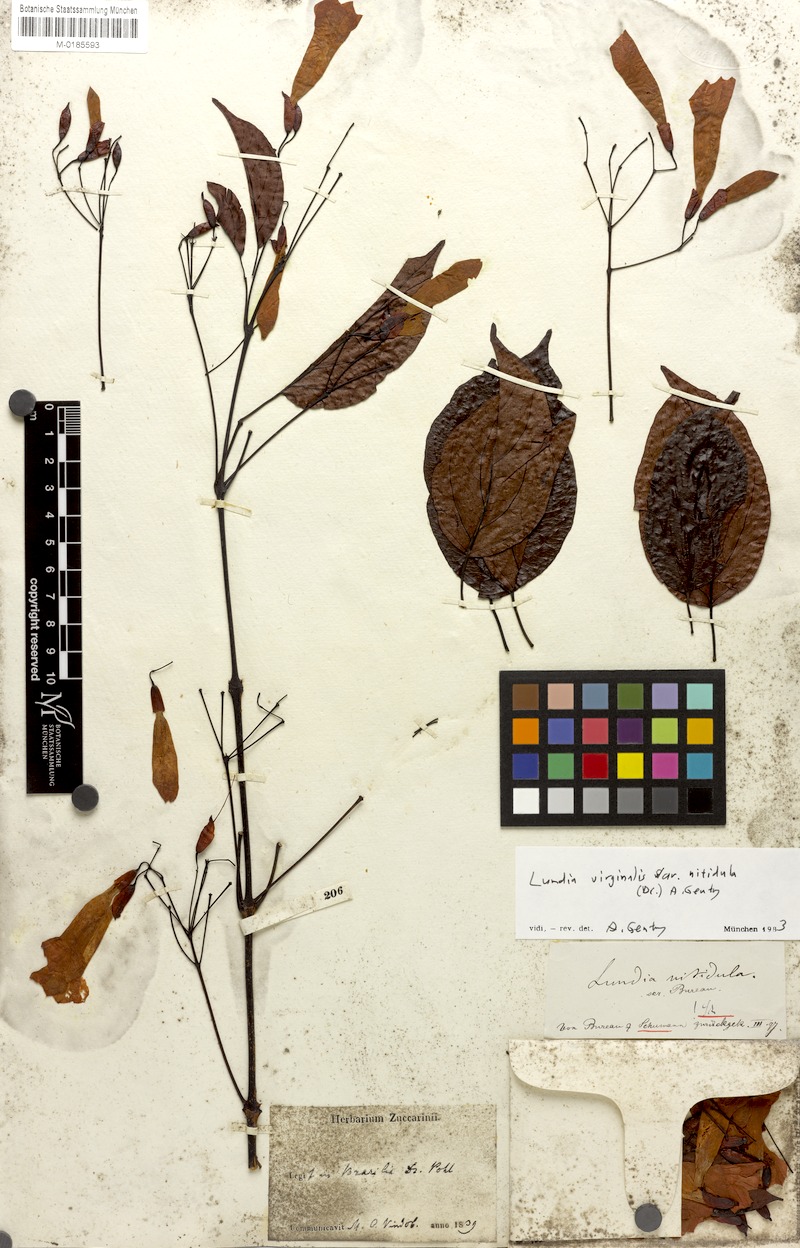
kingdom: Plantae
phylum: Tracheophyta
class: Magnoliopsida
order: Lamiales
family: Bignoniaceae
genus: Lundia
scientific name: Lundia nitidula
